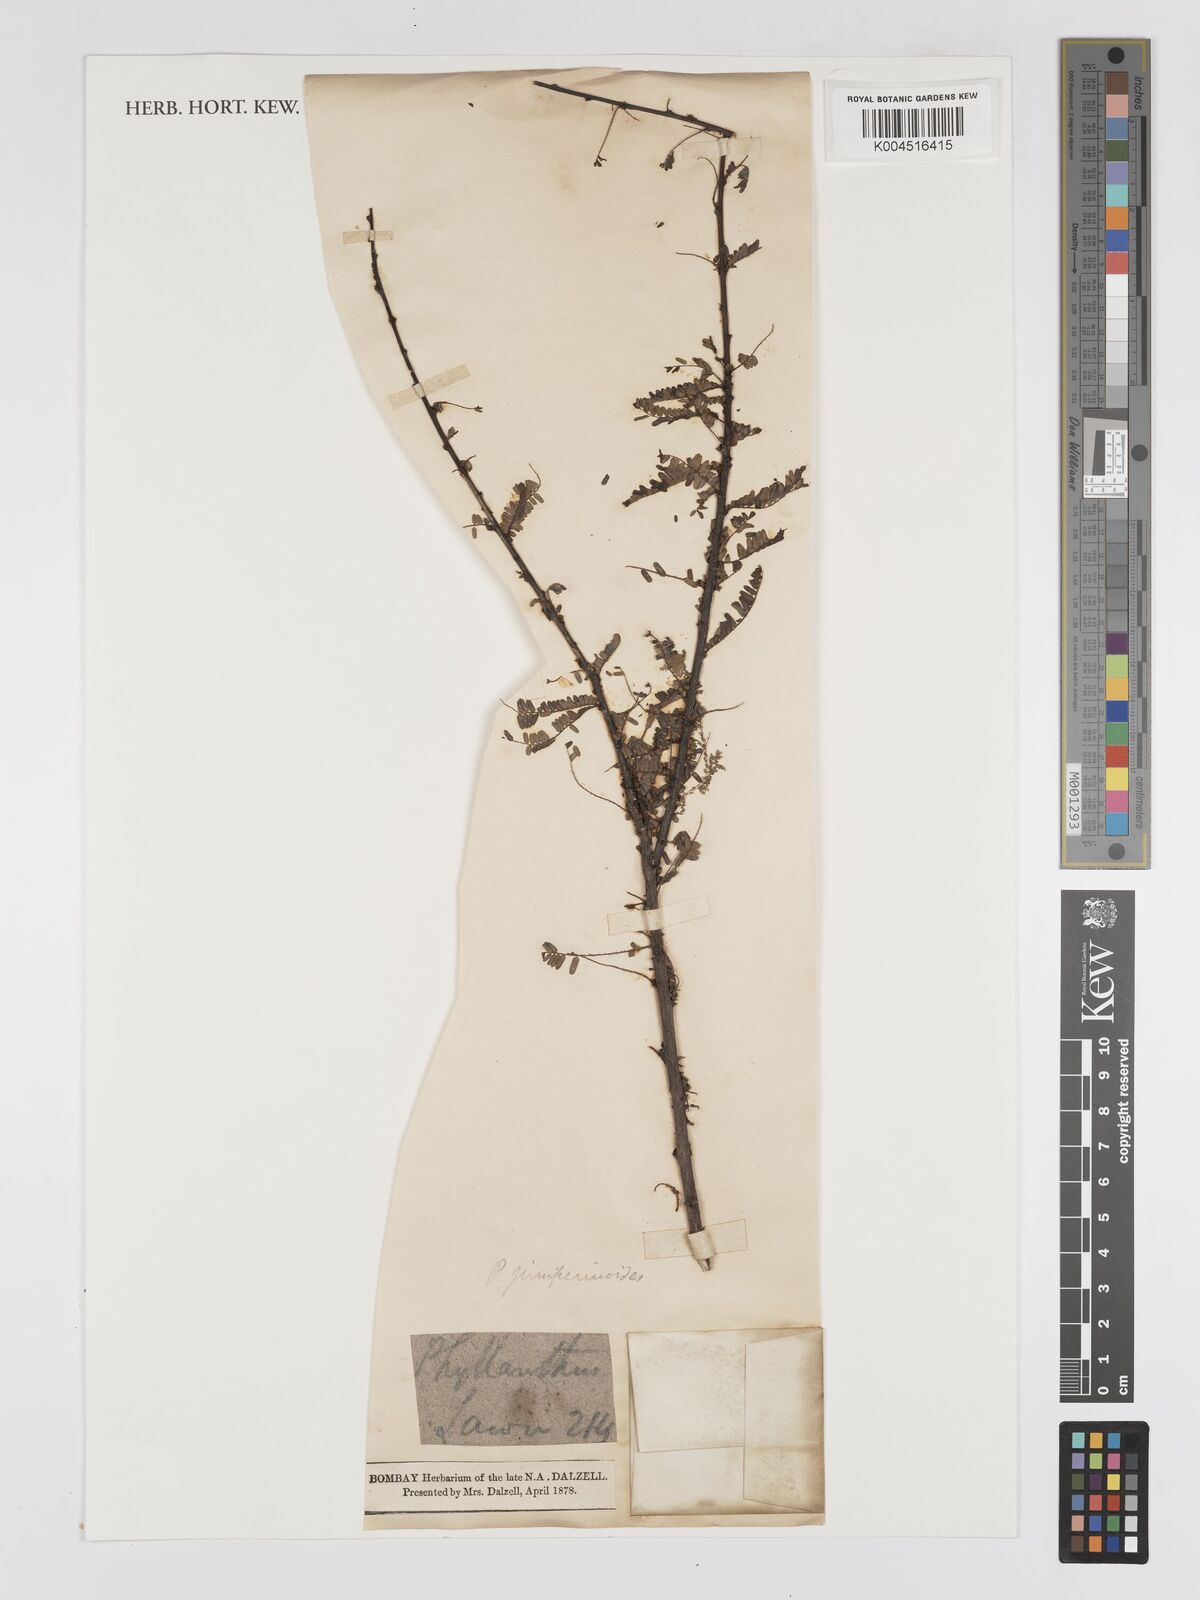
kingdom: Plantae
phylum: Tracheophyta
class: Magnoliopsida
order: Malpighiales
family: Phyllanthaceae
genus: Phyllanthus
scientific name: Phyllanthus lawii
